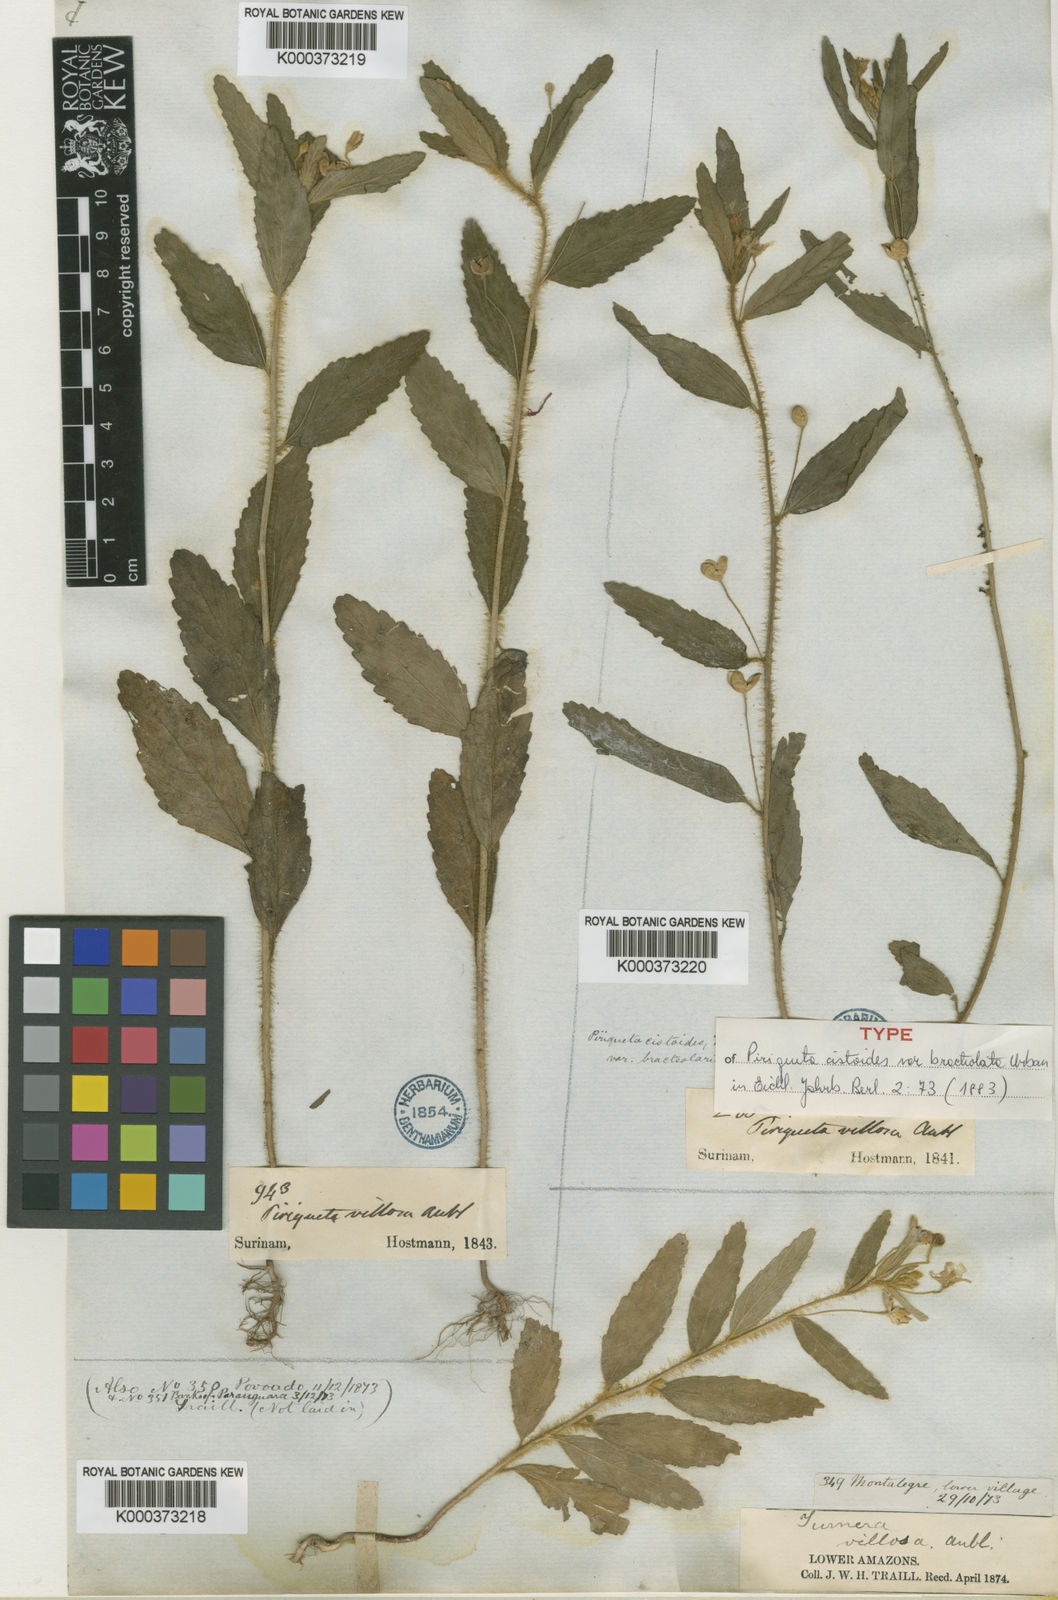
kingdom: Plantae
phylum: Tracheophyta
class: Magnoliopsida
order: Malpighiales
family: Turneraceae
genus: Piriqueta
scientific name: Piriqueta cistoides
